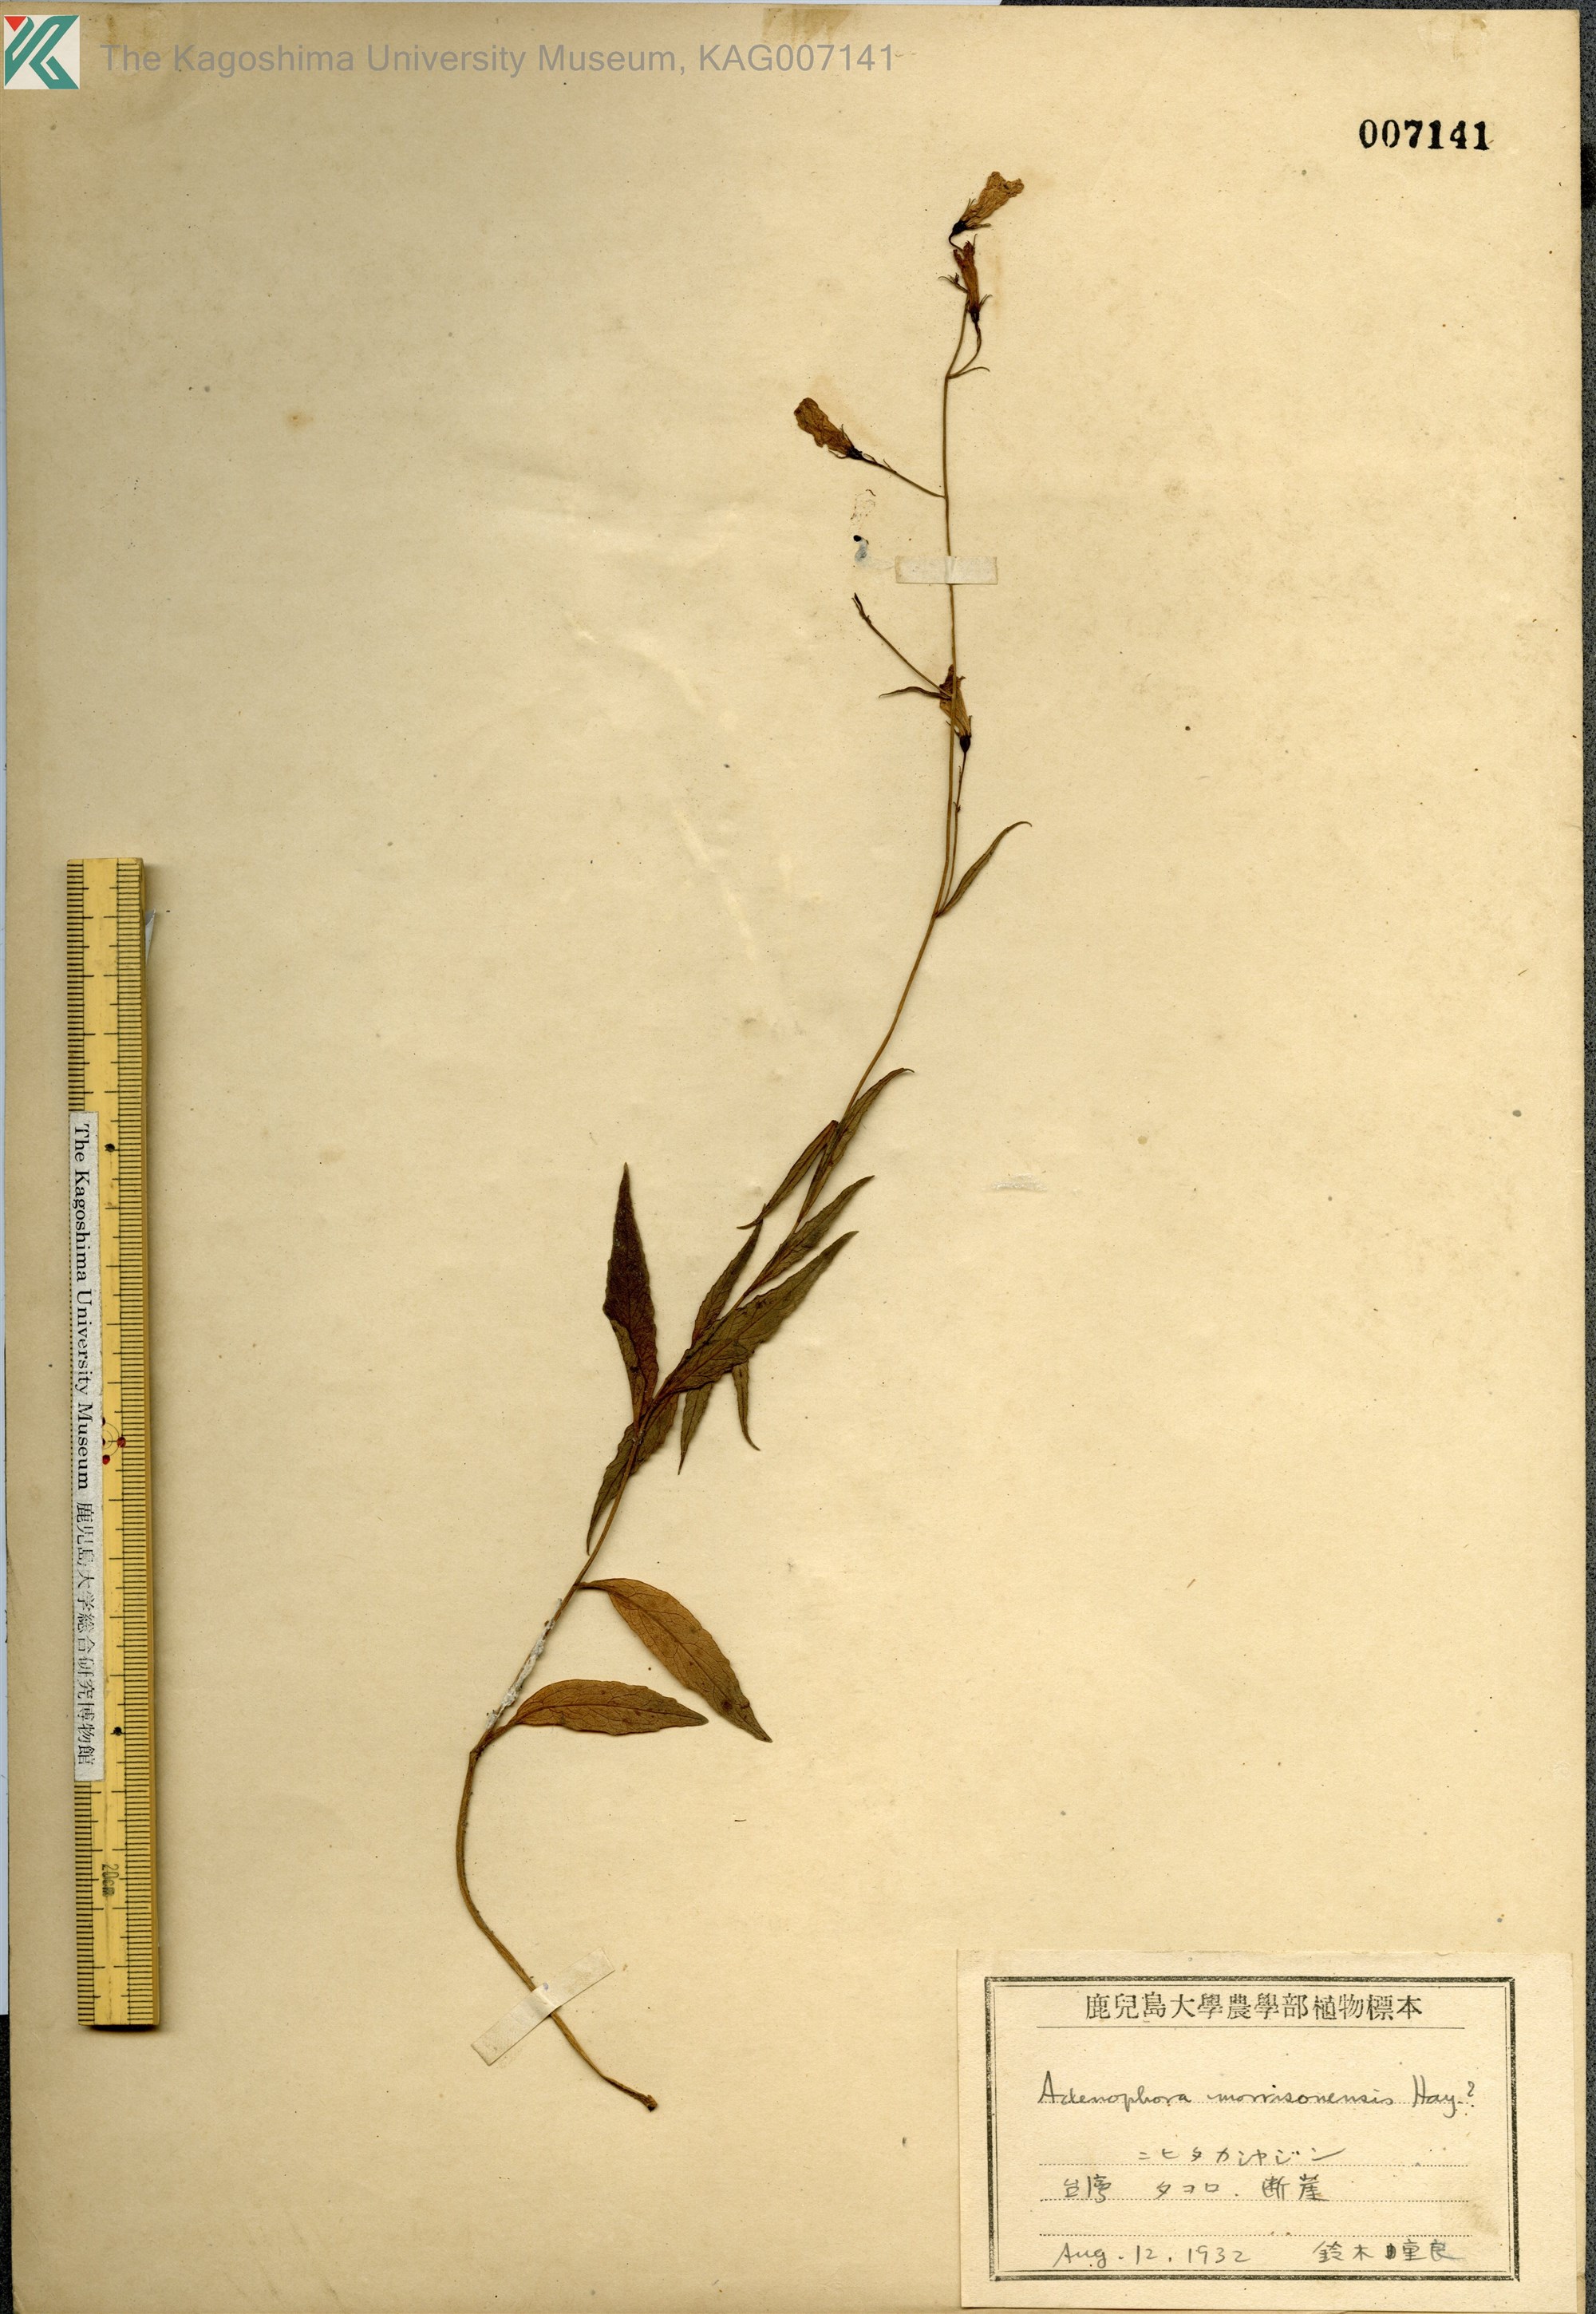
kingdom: Plantae
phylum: Tracheophyta
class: Magnoliopsida
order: Asterales
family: Campanulaceae
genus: Adenophora
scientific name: Adenophora morrisonensis
